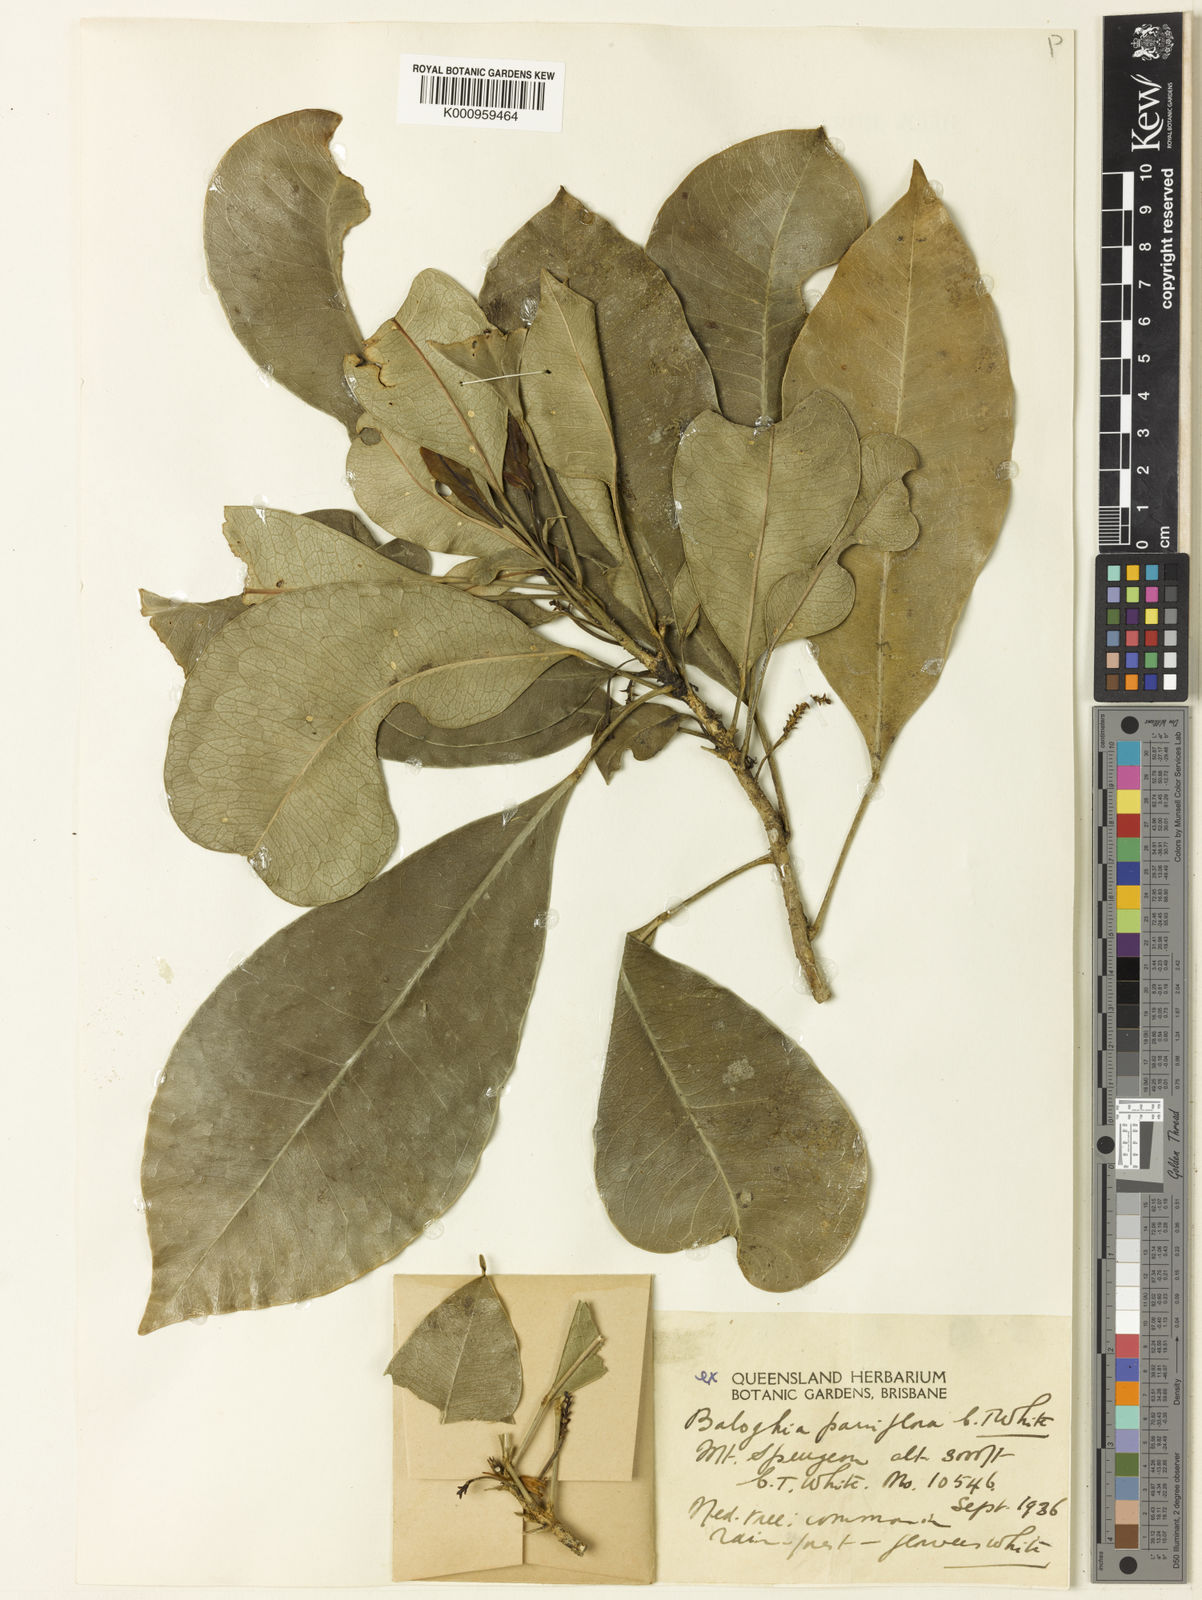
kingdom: Plantae
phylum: Tracheophyta
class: Magnoliopsida
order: Malpighiales
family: Euphorbiaceae
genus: Baloghia
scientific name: Baloghia parviflora
